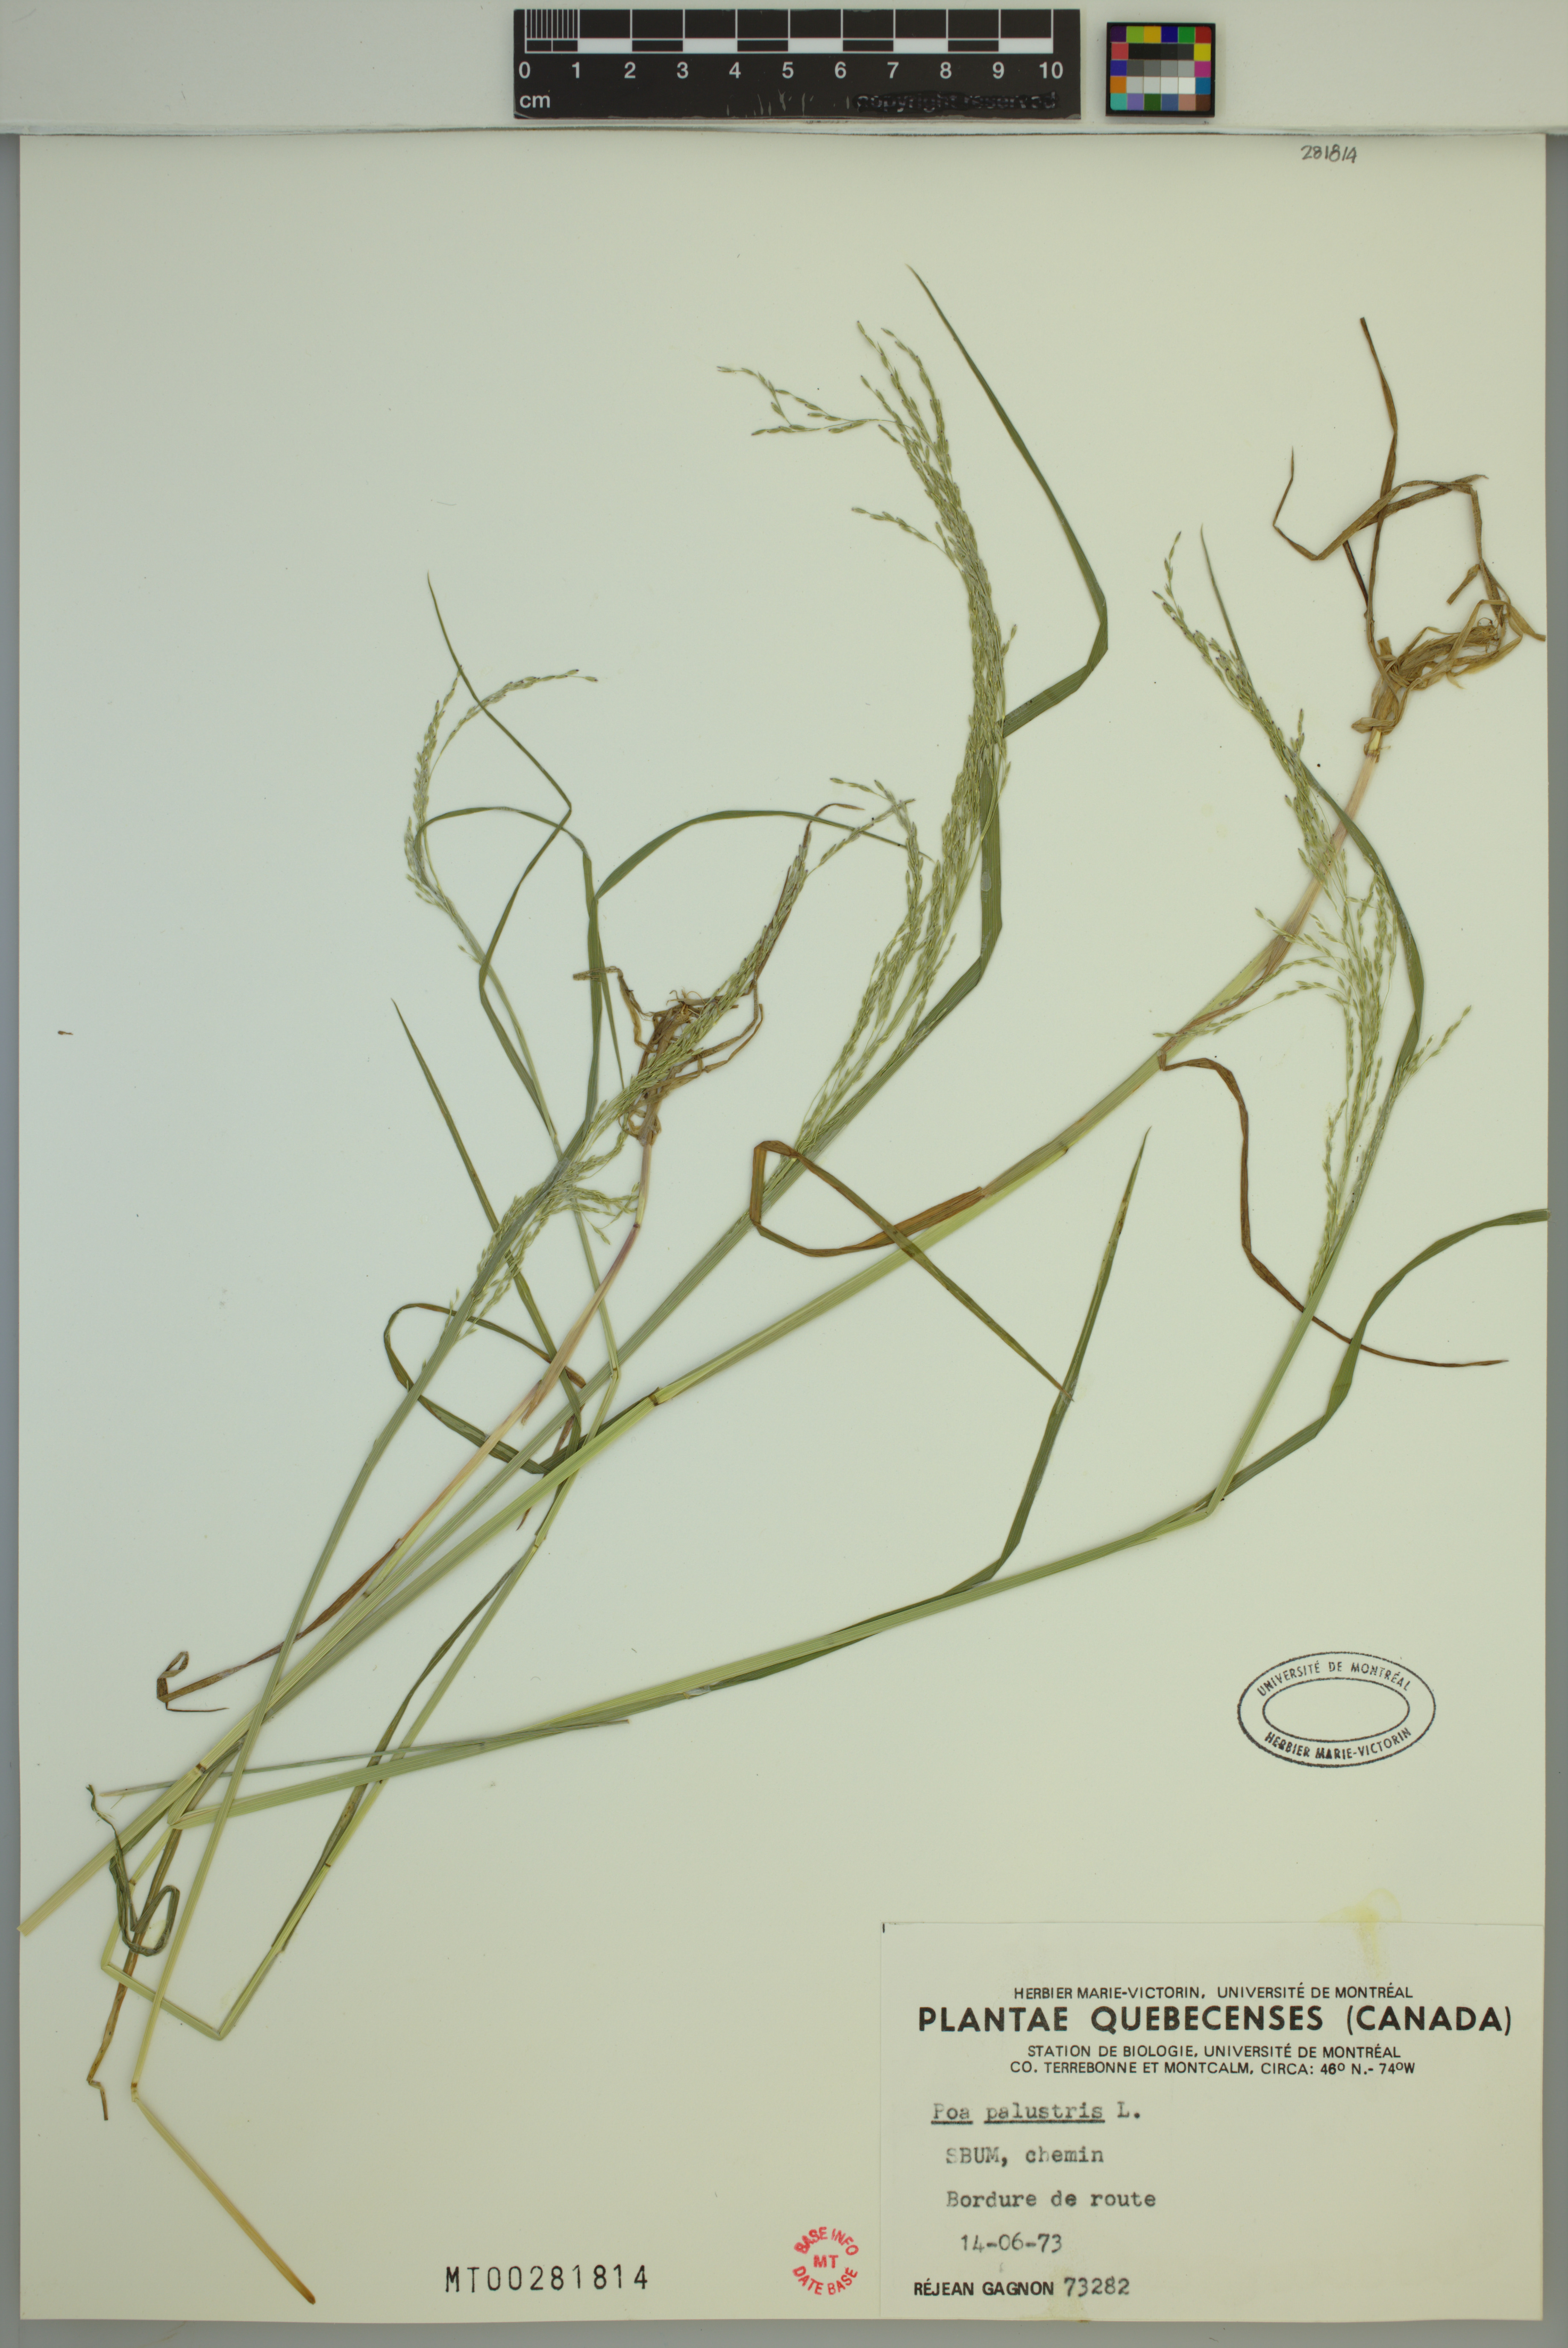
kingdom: Plantae
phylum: Tracheophyta
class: Liliopsida
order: Poales
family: Poaceae
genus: Poa
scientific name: Poa palustris
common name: Swamp meadow-grass
